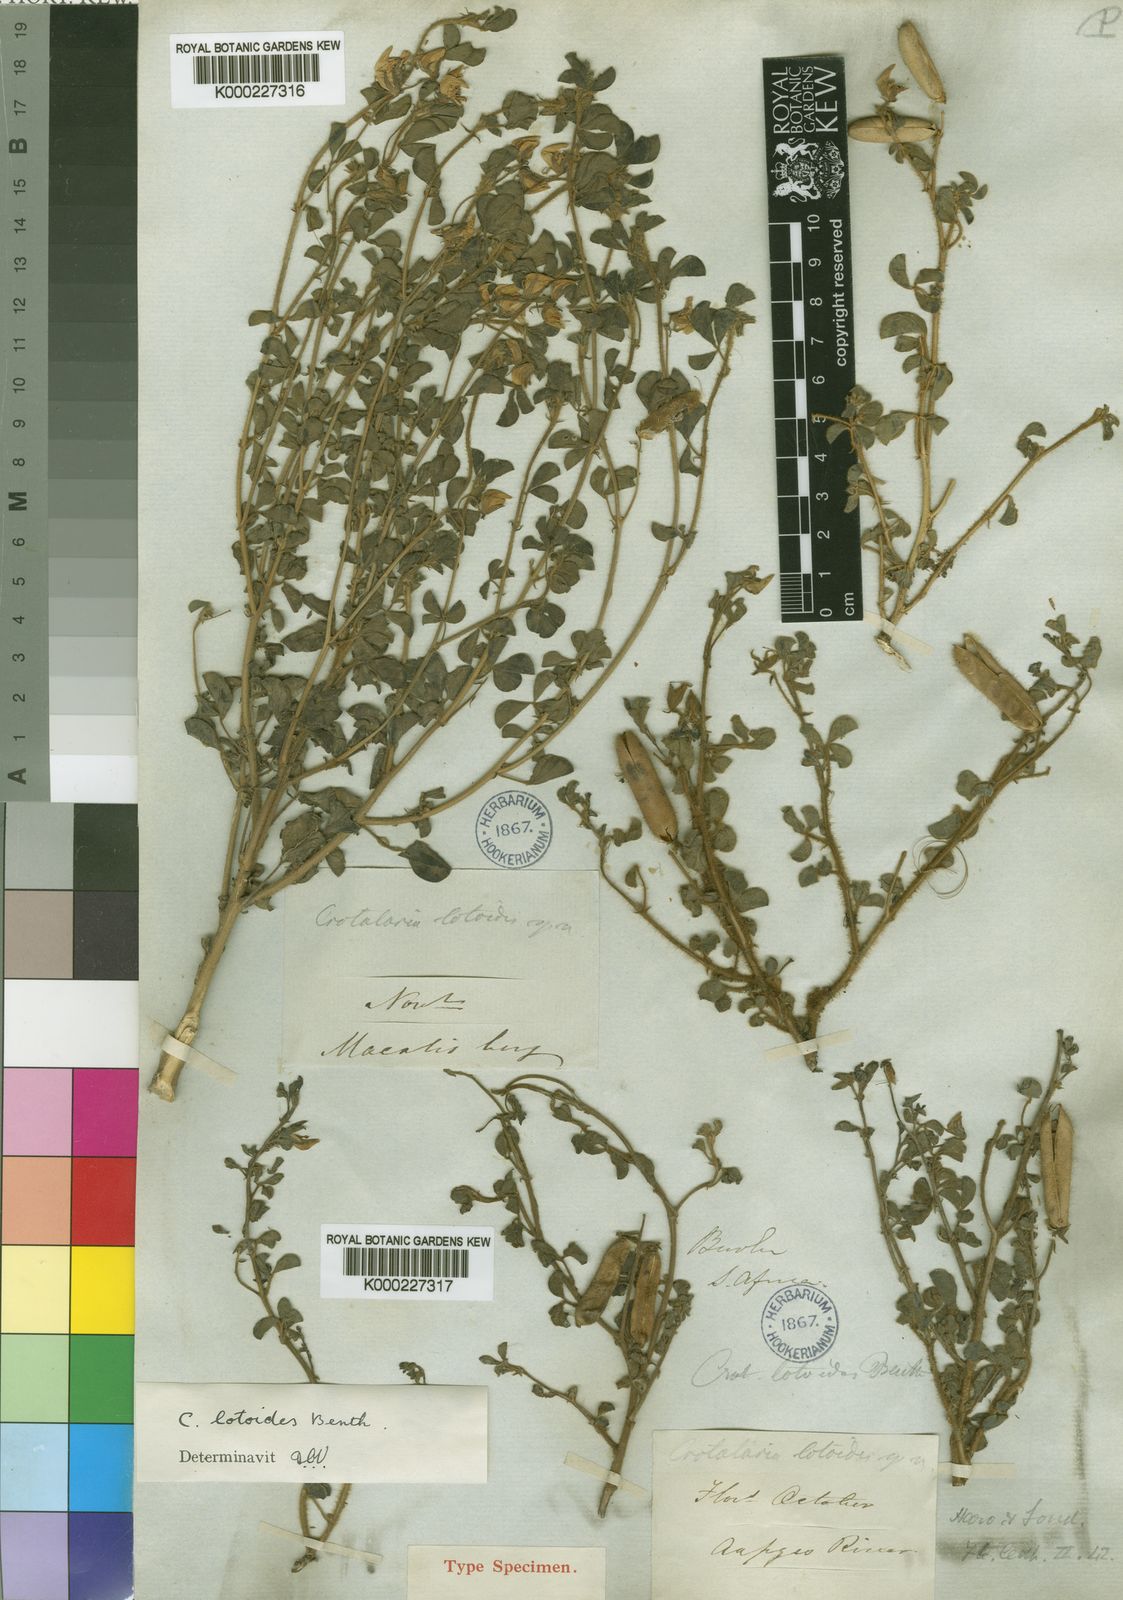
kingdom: Plantae
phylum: Tracheophyta
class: Magnoliopsida
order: Fabales
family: Fabaceae
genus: Crotalaria
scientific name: Crotalaria lotoides
